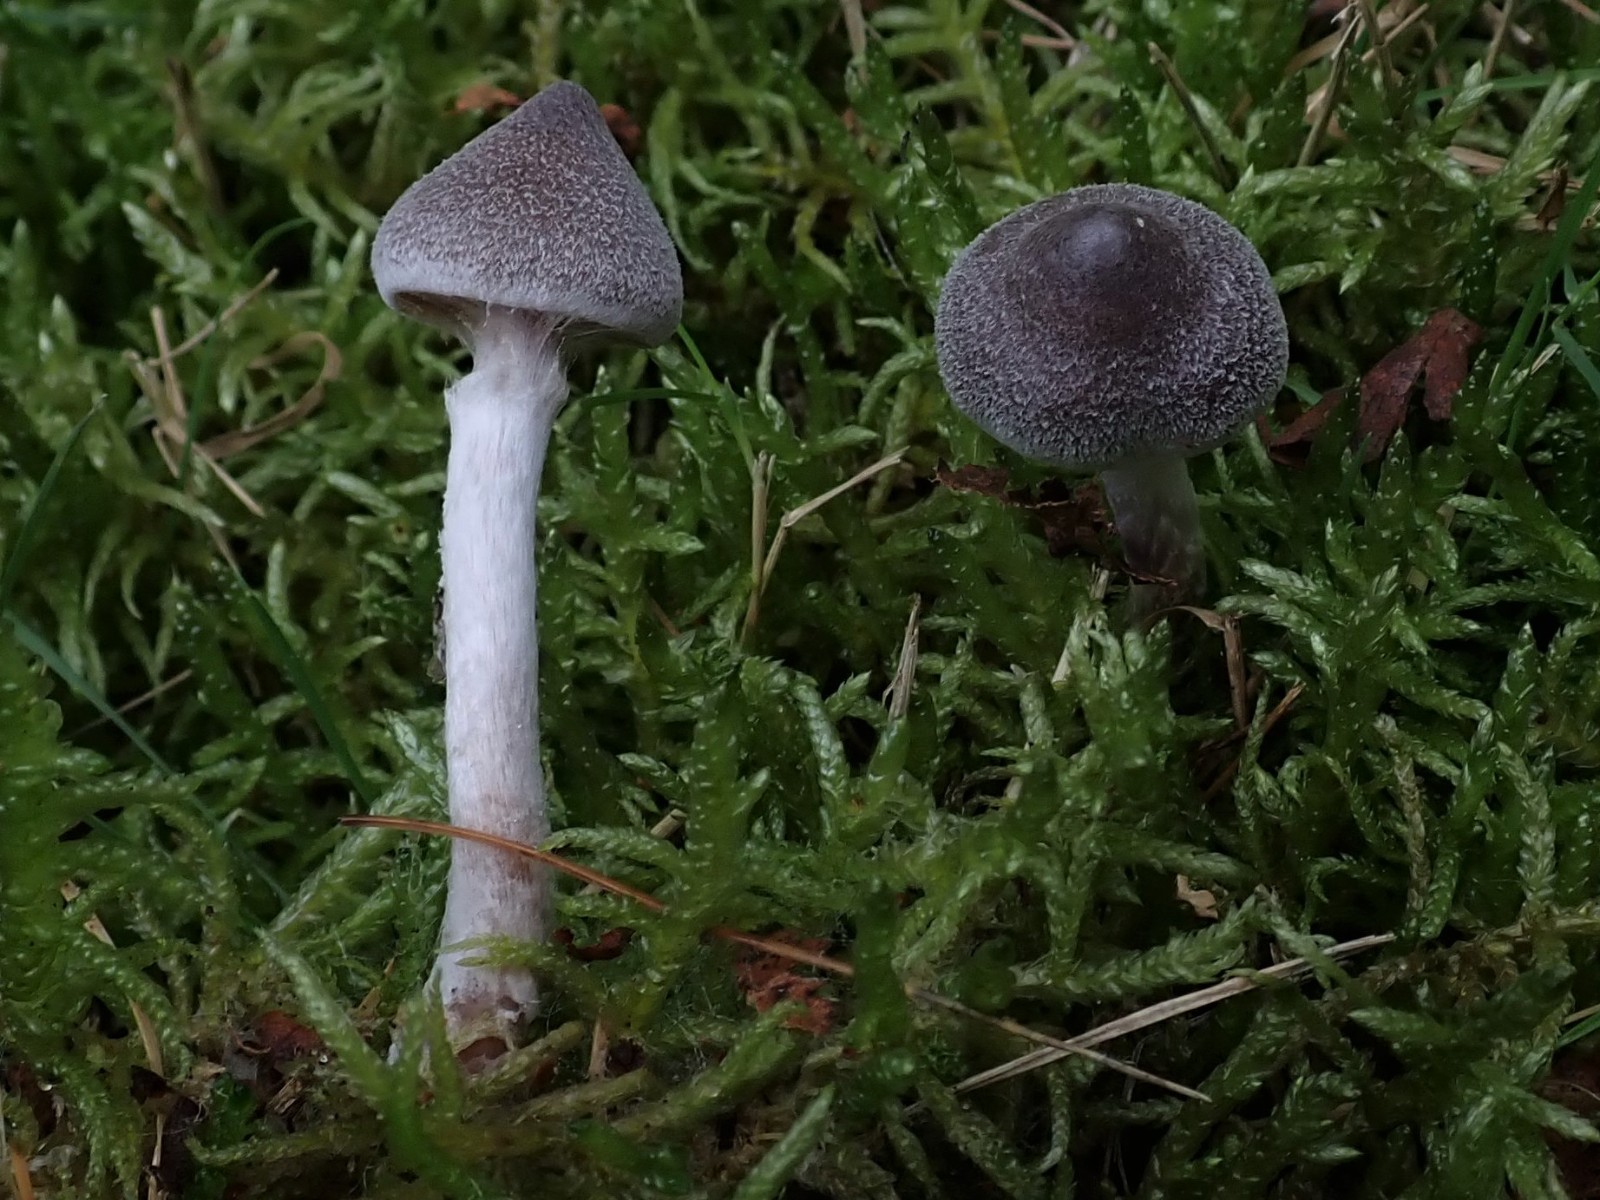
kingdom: Fungi
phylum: Basidiomycota
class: Agaricomycetes
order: Agaricales
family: Cortinariaceae
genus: Cortinarius
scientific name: Cortinarius hemitrichus
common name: hvidfnugget slørhat
